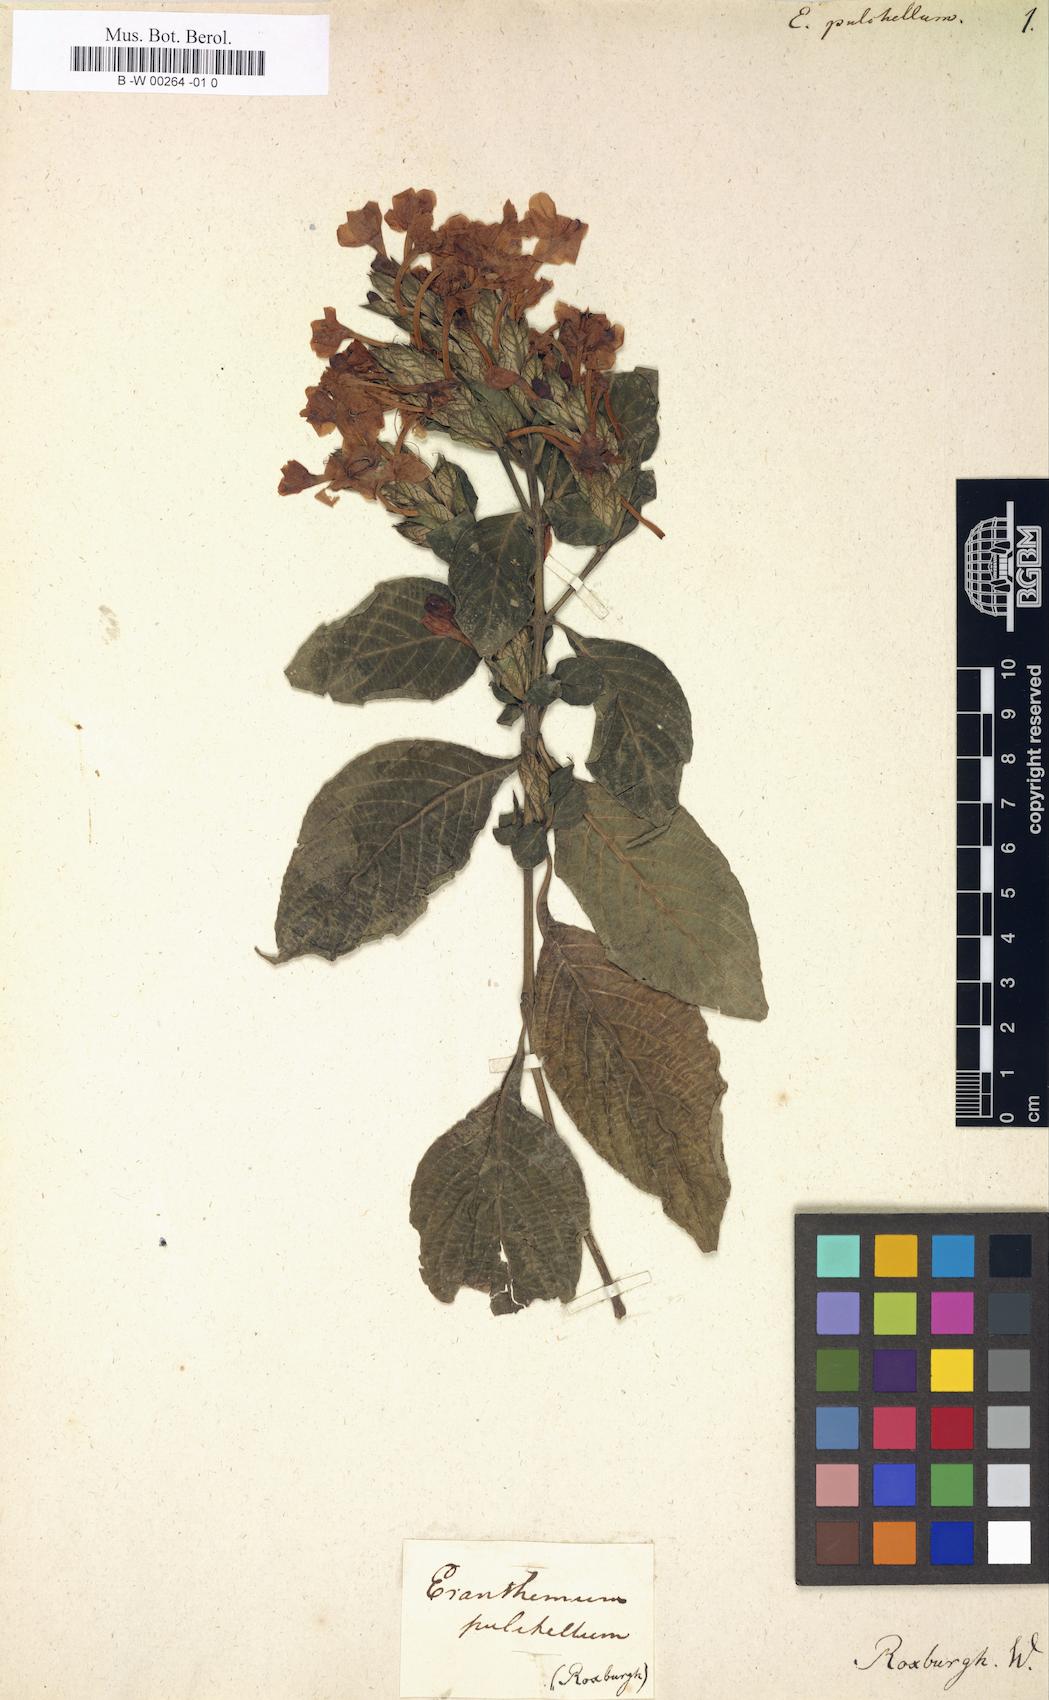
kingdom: Plantae
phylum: Tracheophyta
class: Magnoliopsida
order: Lamiales
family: Acanthaceae
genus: Eranthemum
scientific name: Eranthemum pulchellum
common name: Blue-sage
